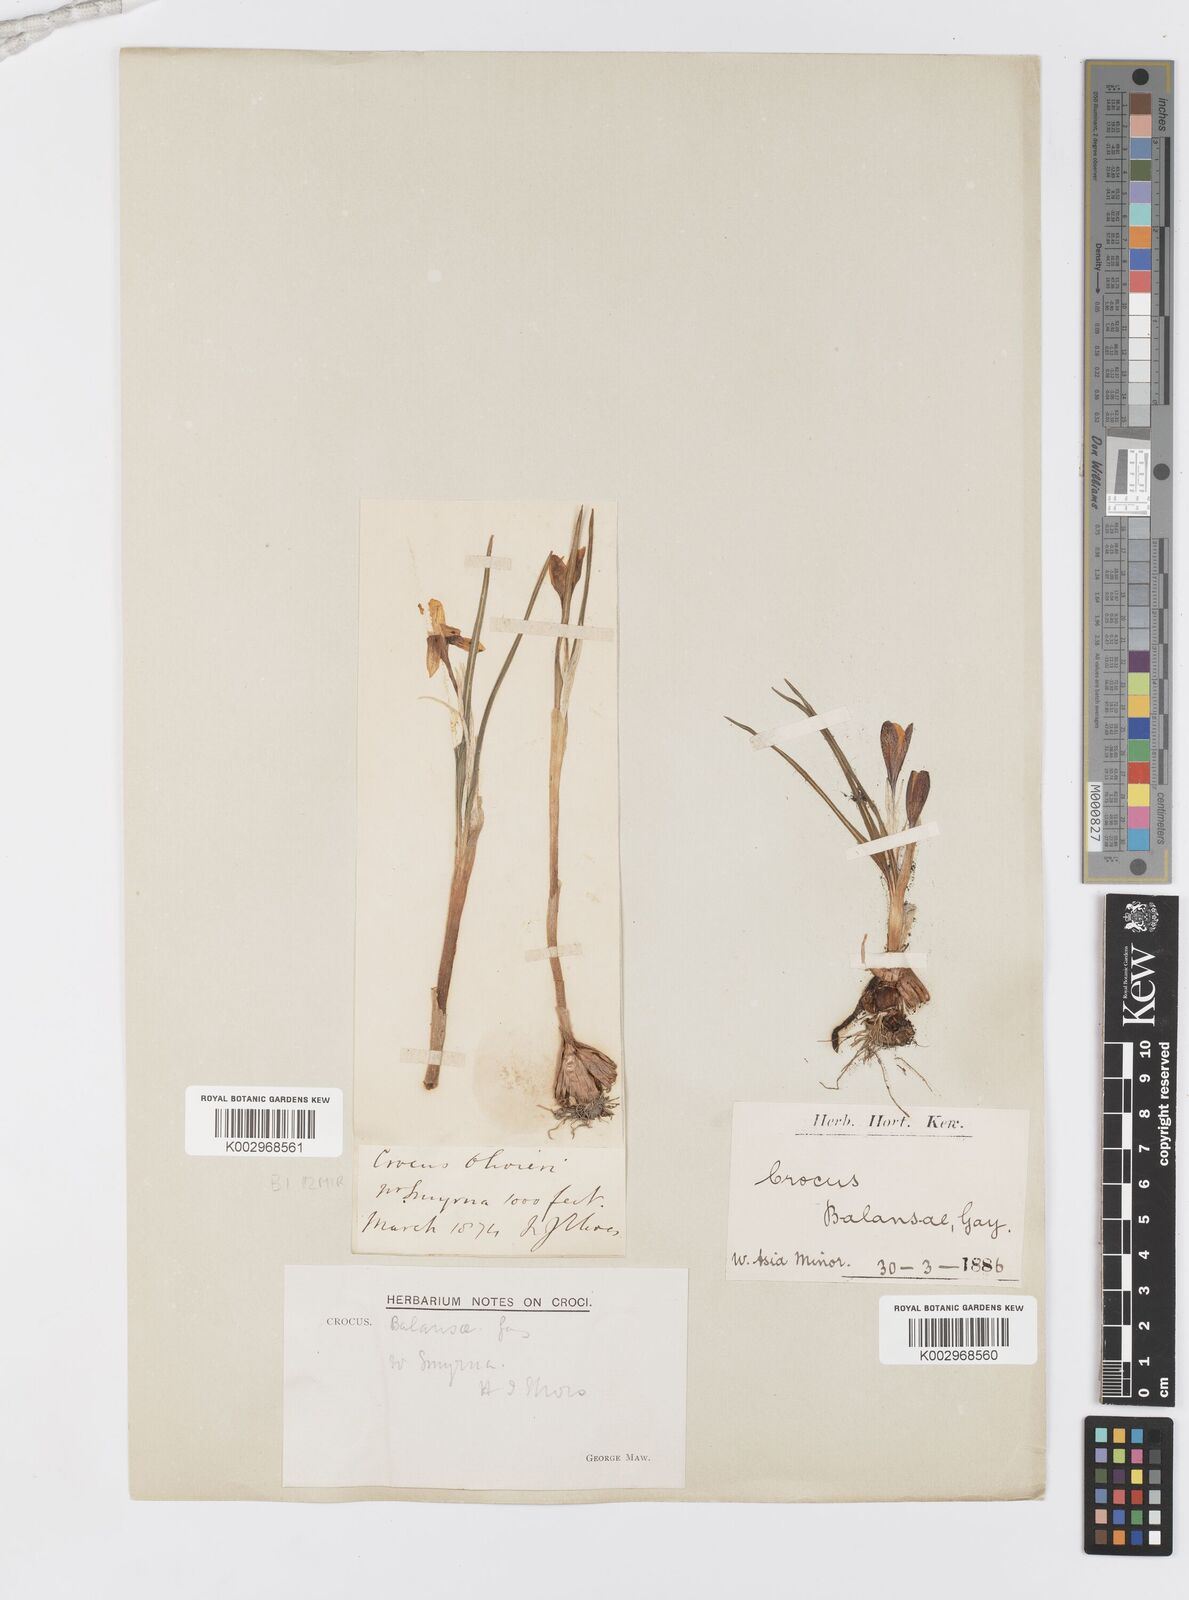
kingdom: Plantae
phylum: Tracheophyta
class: Liliopsida
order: Asparagales
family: Iridaceae
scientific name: Iridaceae
